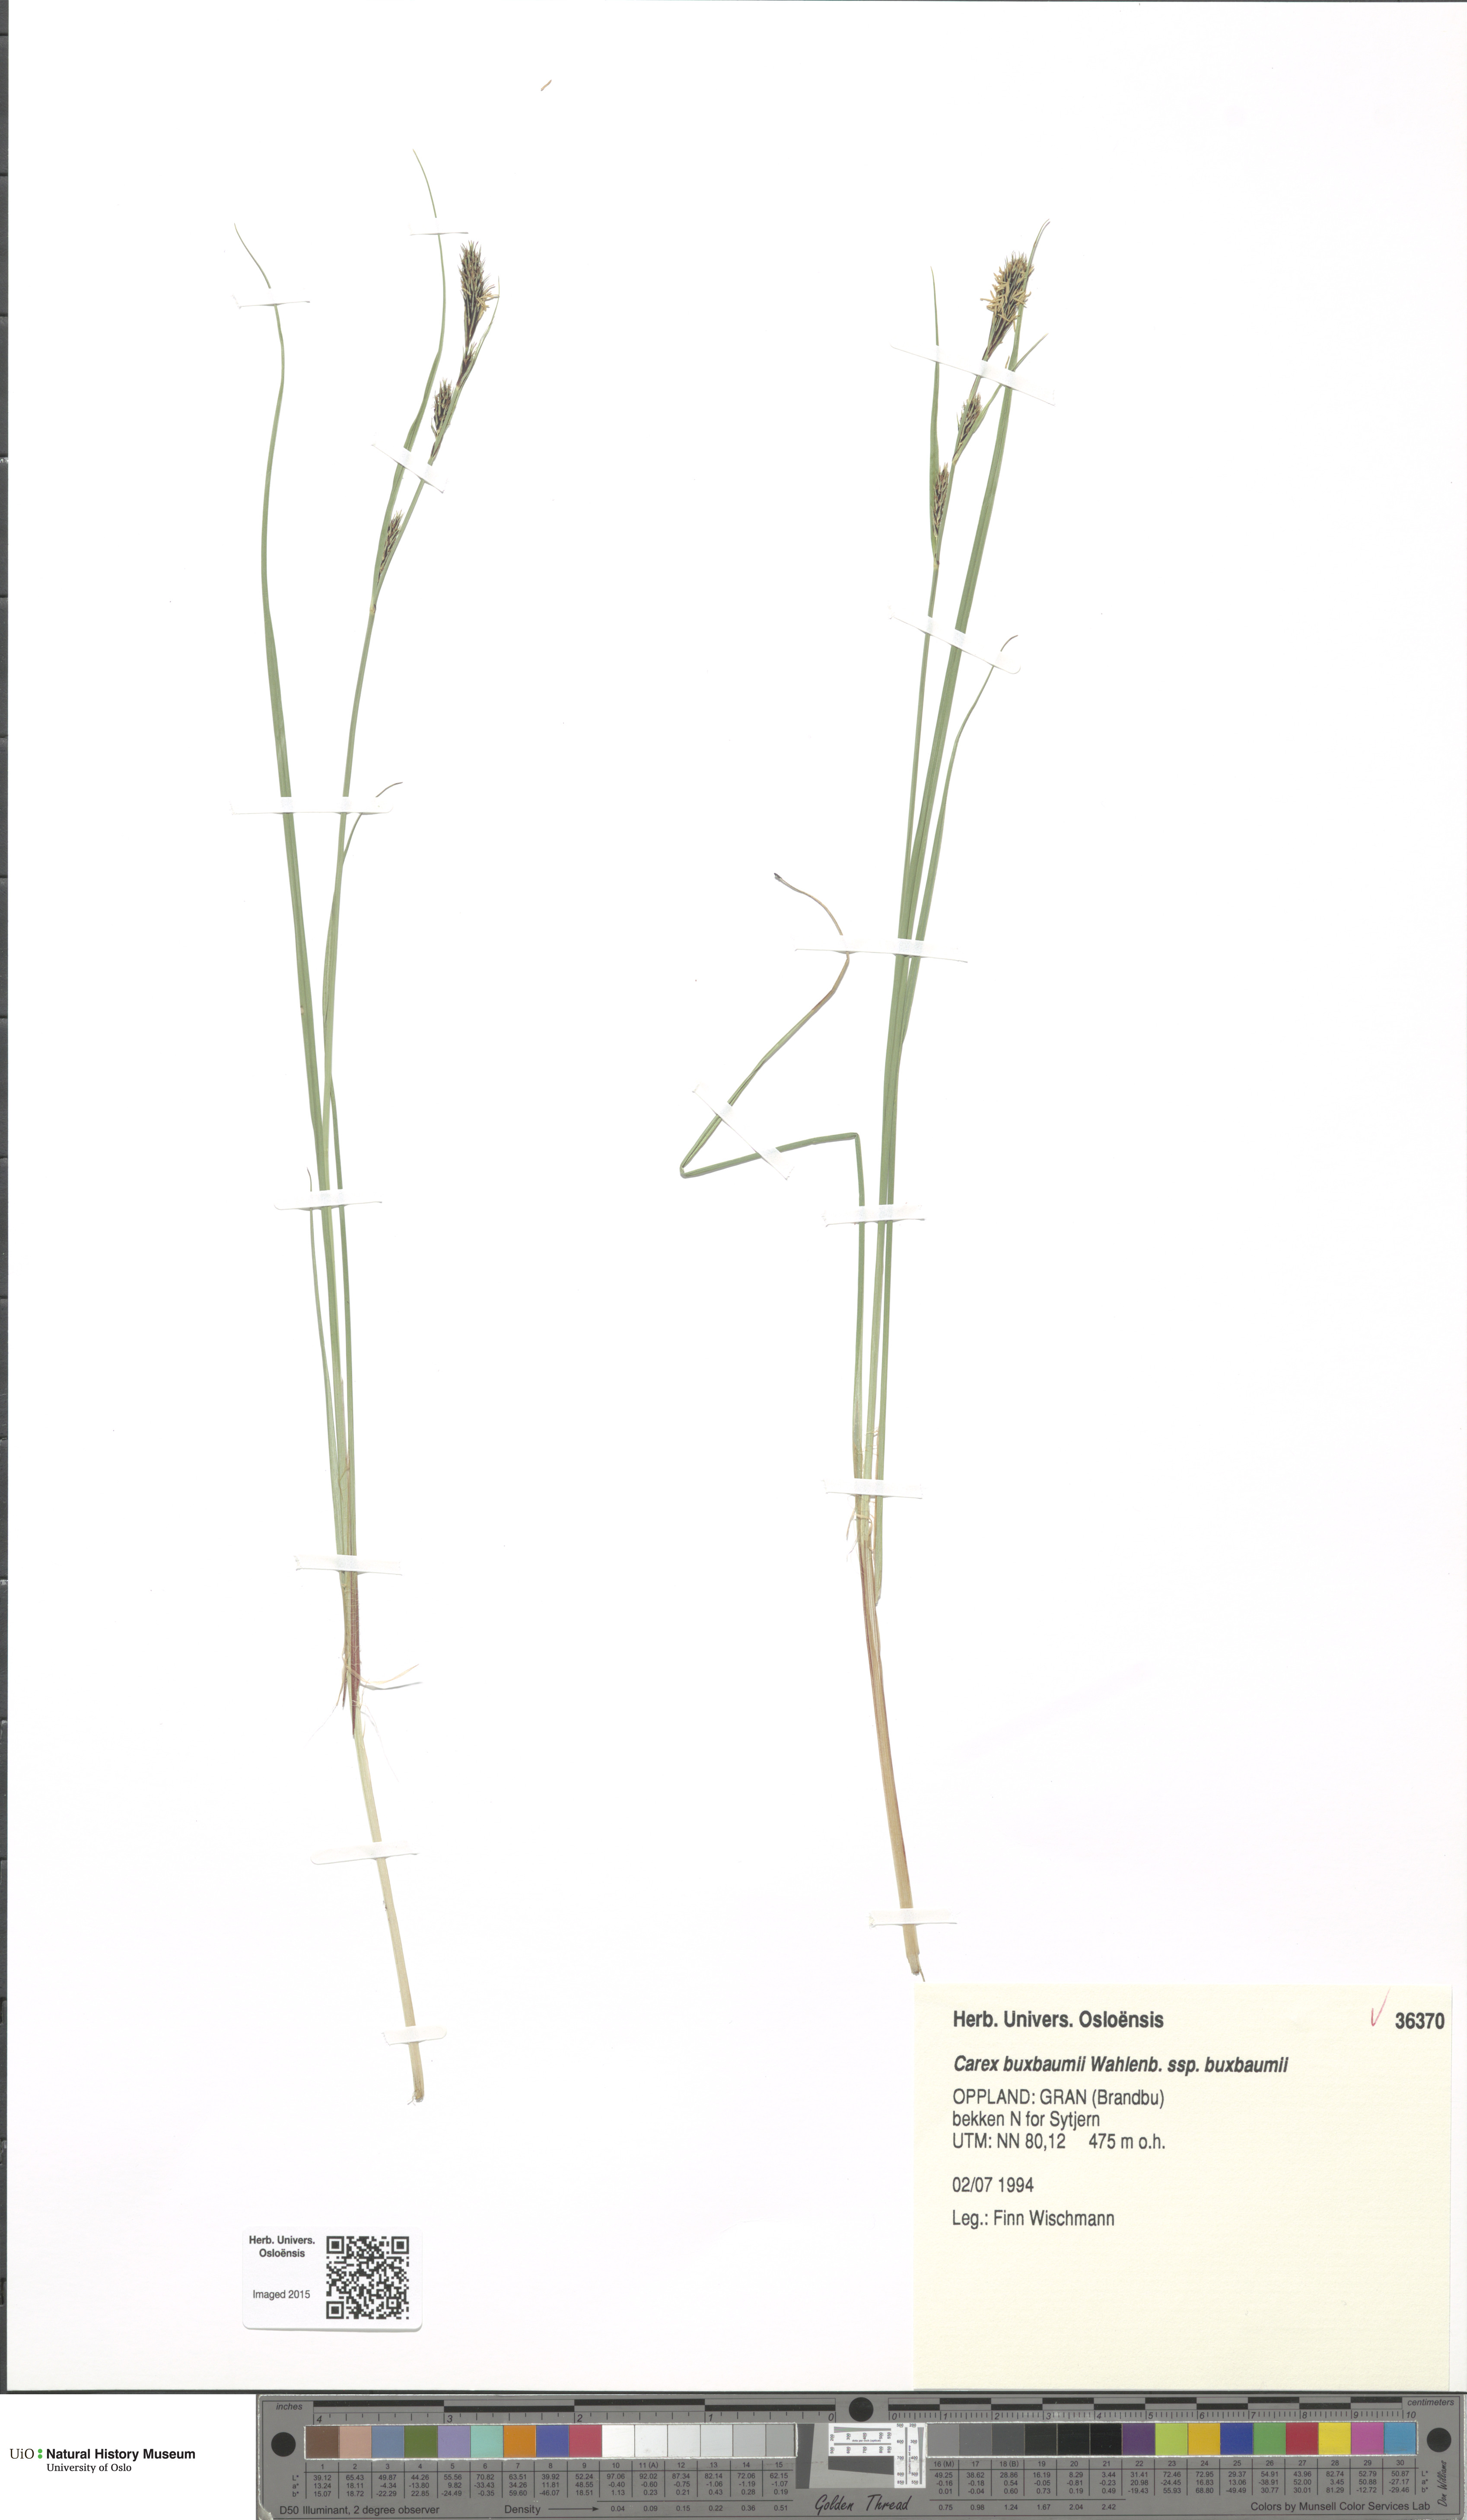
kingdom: Plantae
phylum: Tracheophyta
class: Liliopsida
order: Poales
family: Cyperaceae
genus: Carex
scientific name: Carex buxbaumii
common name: Club sedge
